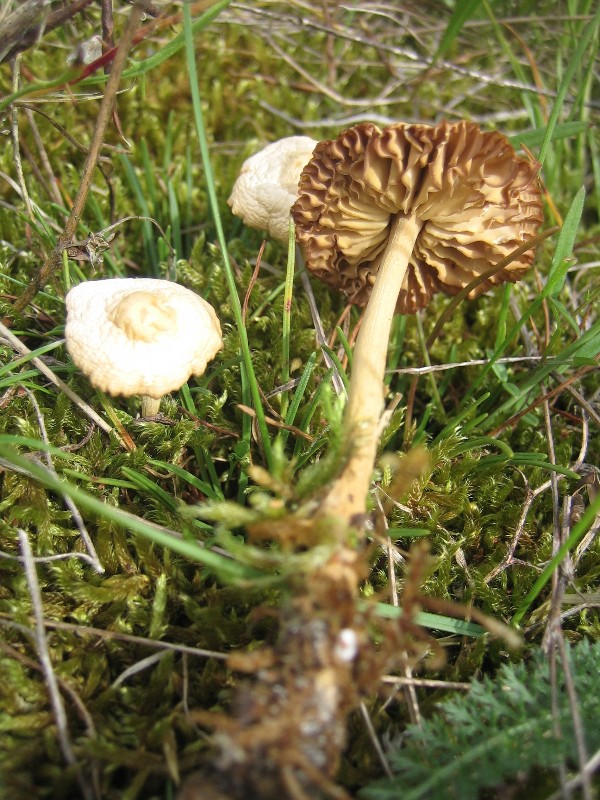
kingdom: Fungi
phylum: Basidiomycota
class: Agaricomycetes
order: Agaricales
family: Marasmiaceae
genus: Marasmius
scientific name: Marasmius oreades
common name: elledans-bruskhat
